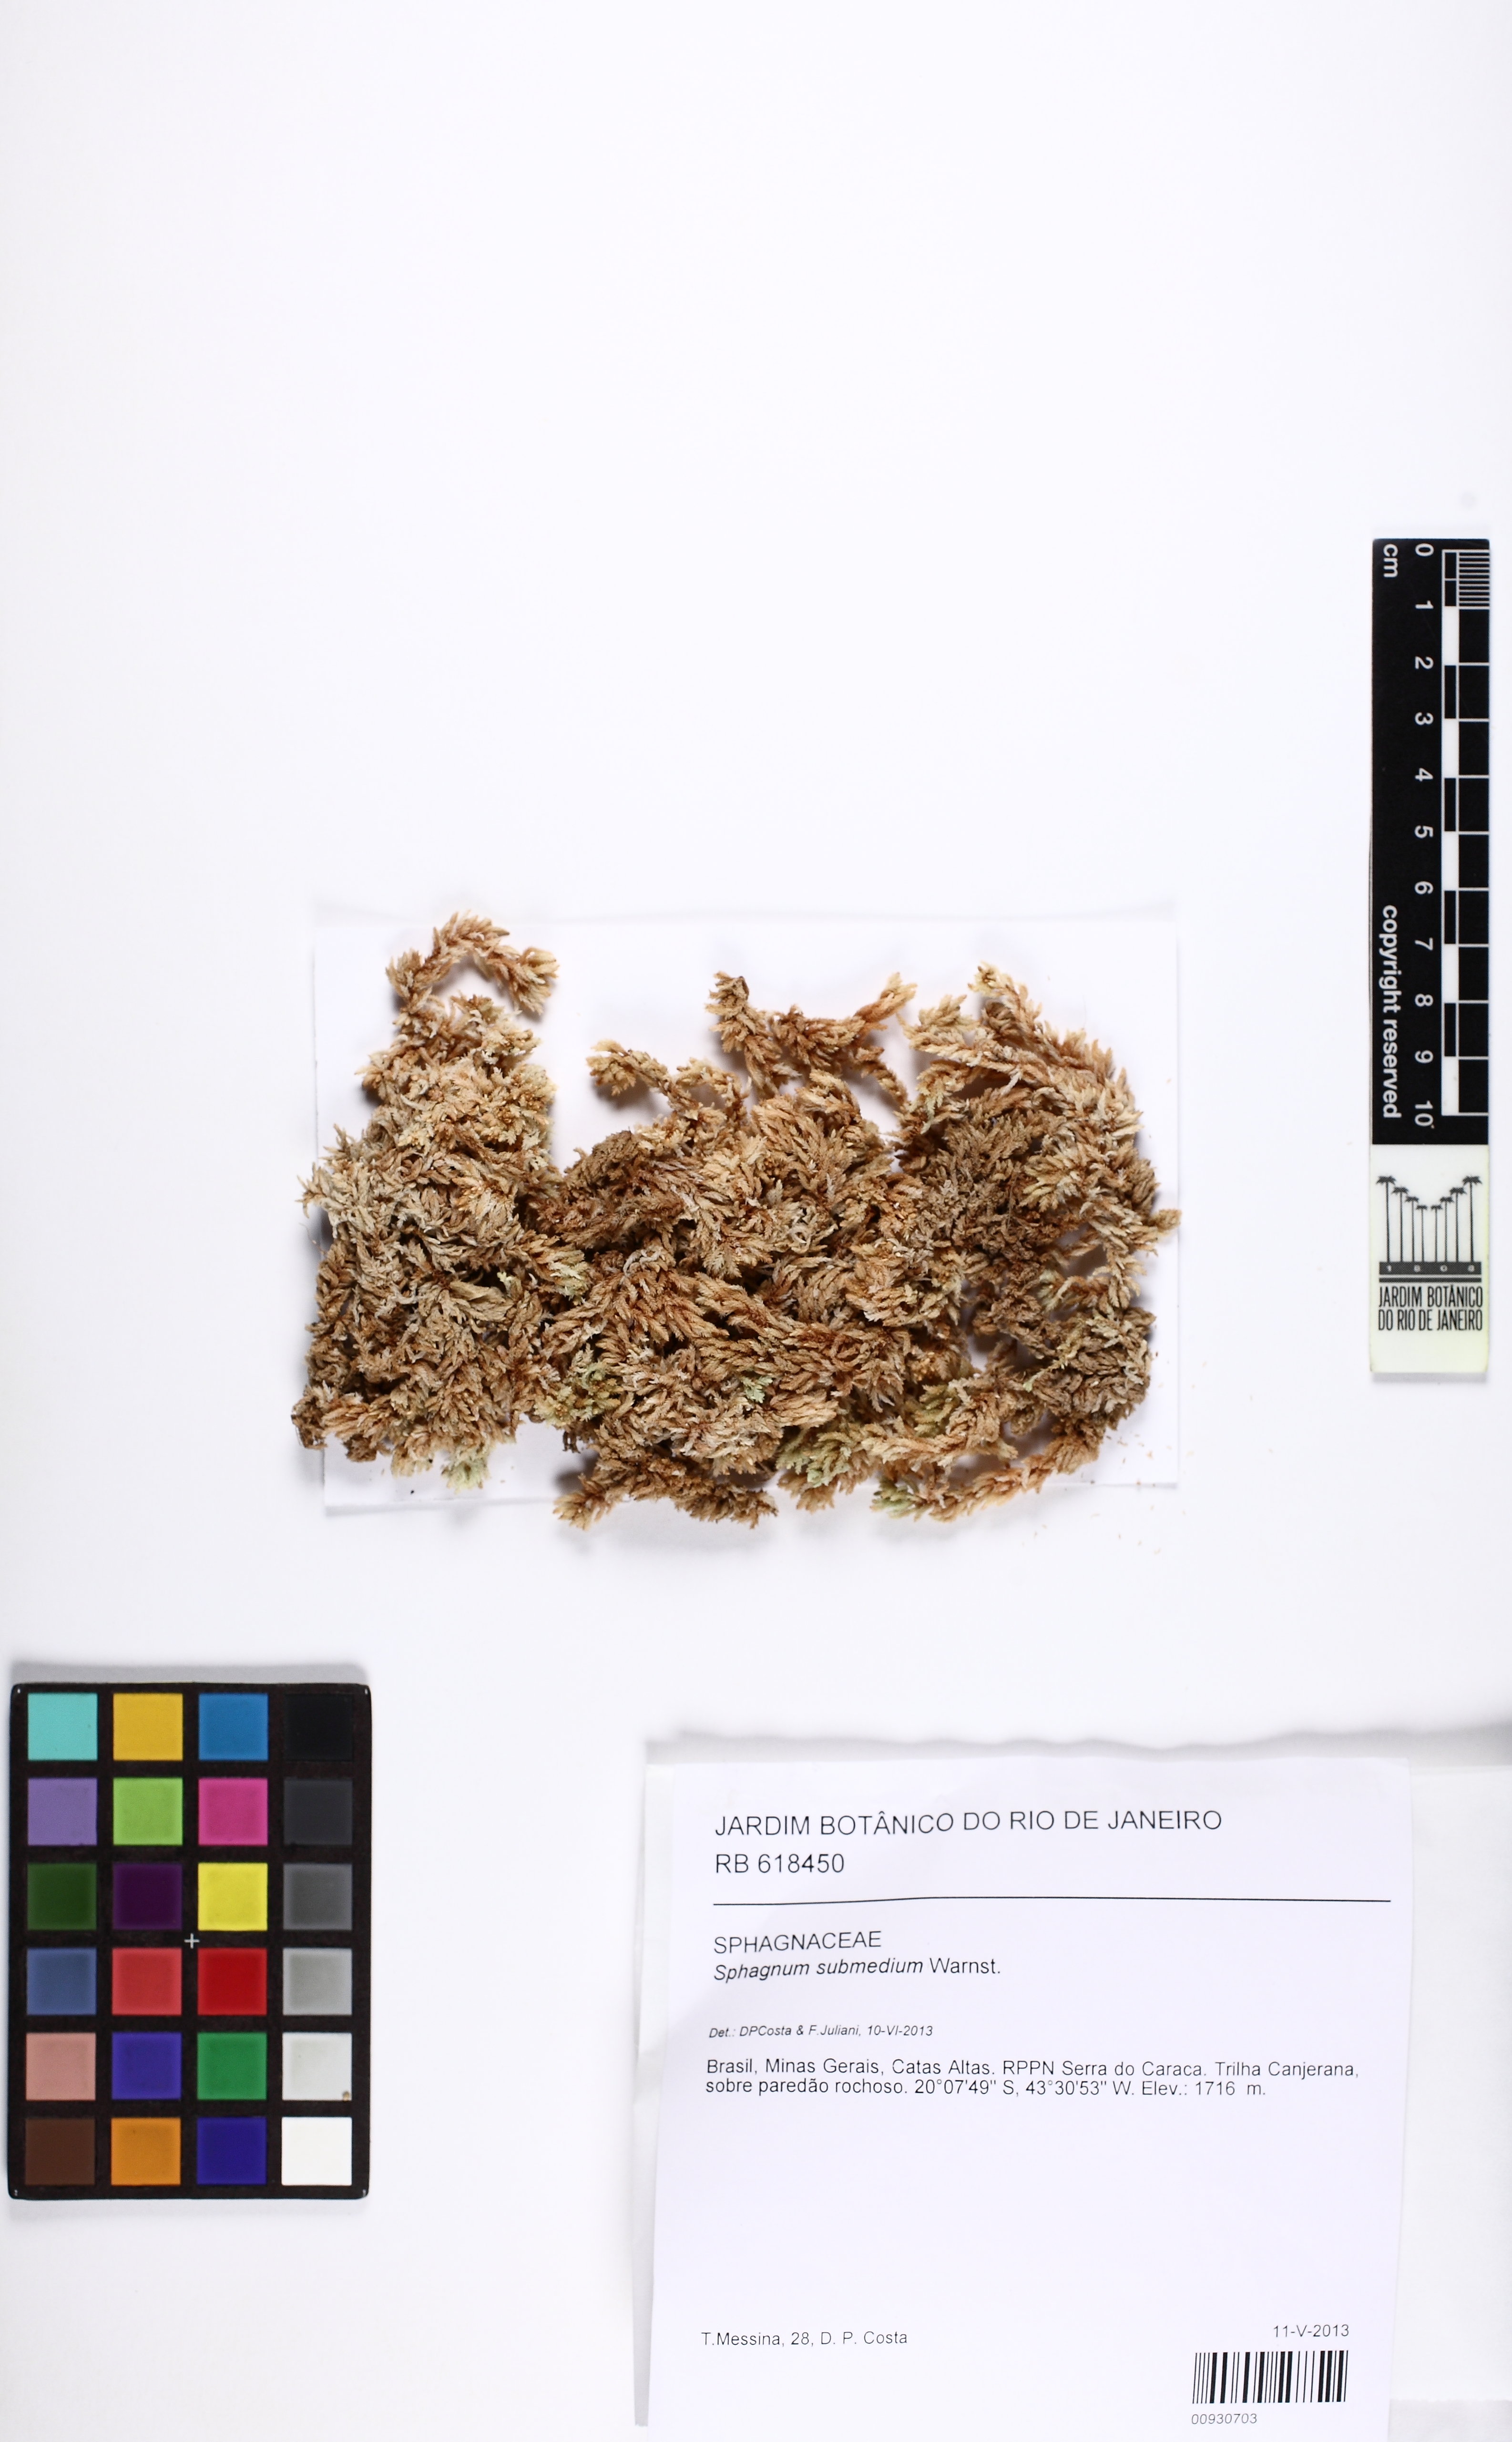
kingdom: Plantae
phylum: Bryophyta
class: Sphagnopsida
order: Sphagnales
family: Sphagnaceae
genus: Sphagnum
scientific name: Sphagnum submedium
